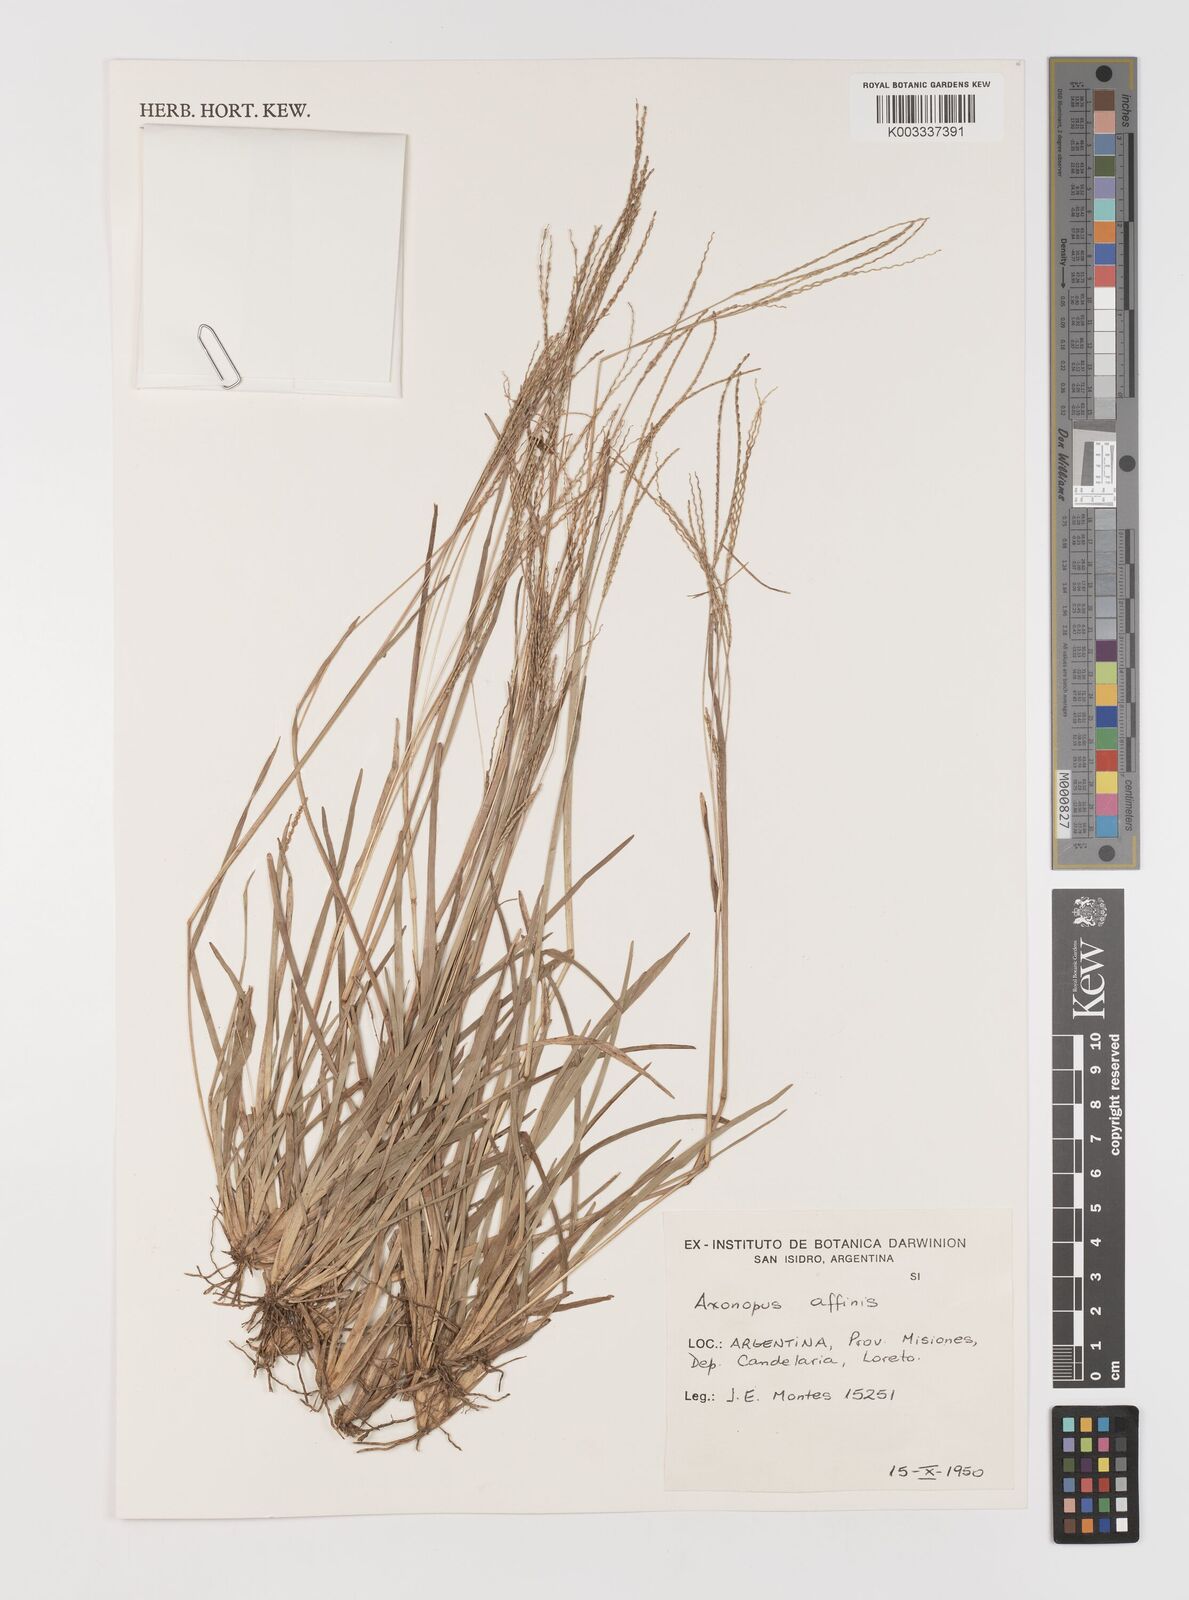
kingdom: Plantae
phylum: Tracheophyta
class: Liliopsida
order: Poales
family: Poaceae
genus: Axonopus
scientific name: Axonopus fissifolius
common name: Common carpetgrass
